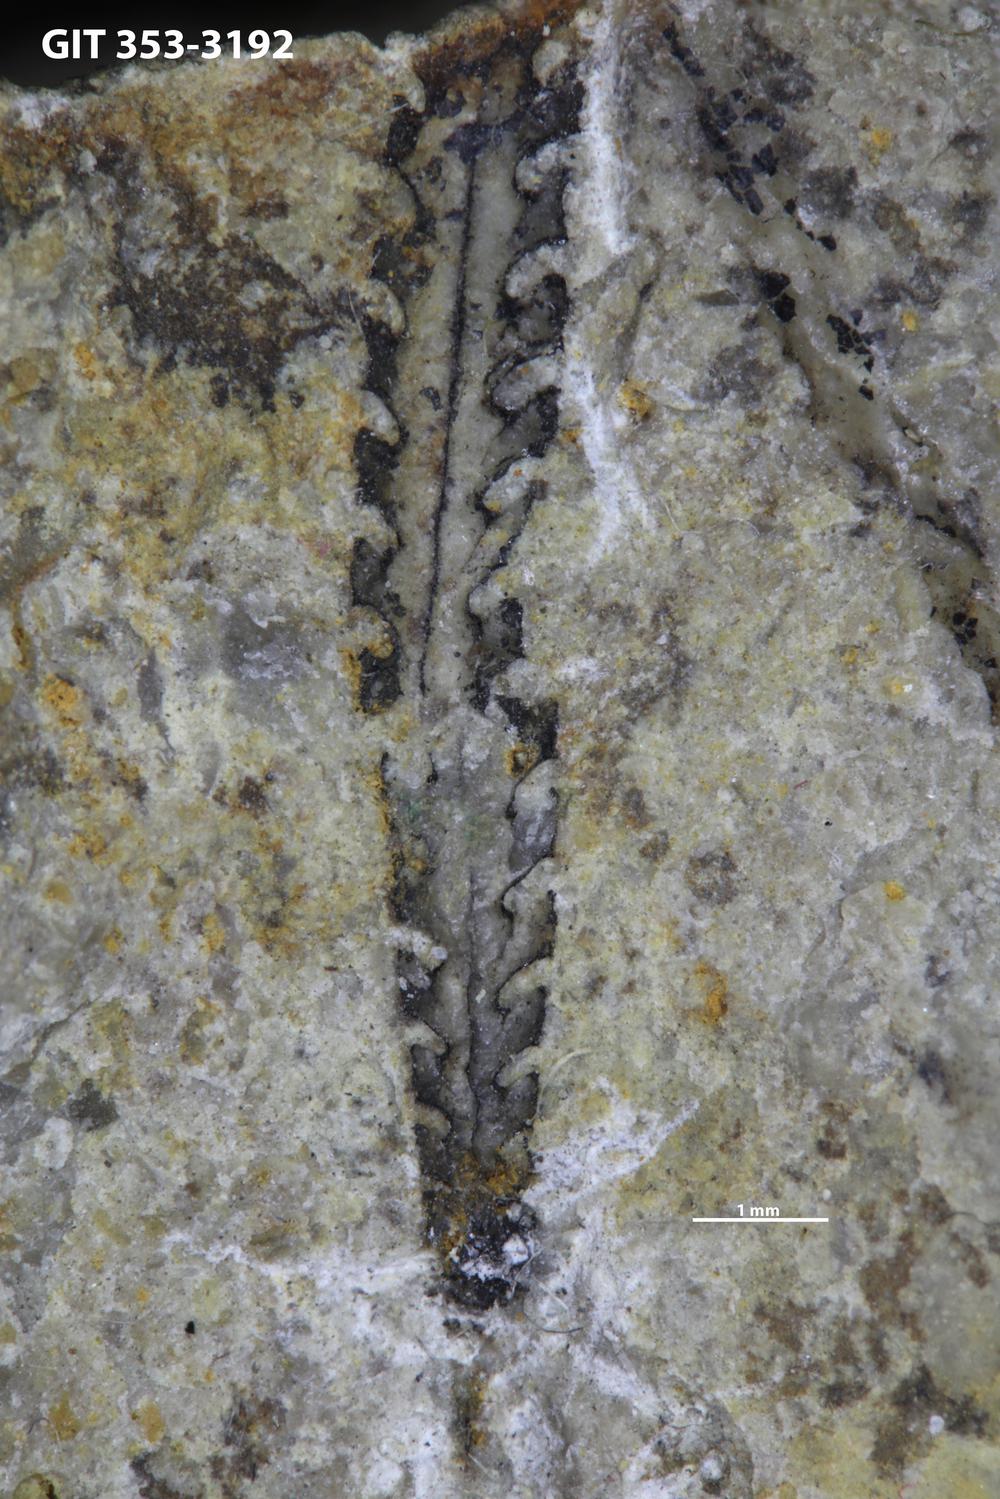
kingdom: Animalia
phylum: Hemichordata
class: Pterobranchia
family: Climacograptidae
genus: Pseudoclimacograptus
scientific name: Pseudoclimacograptus
